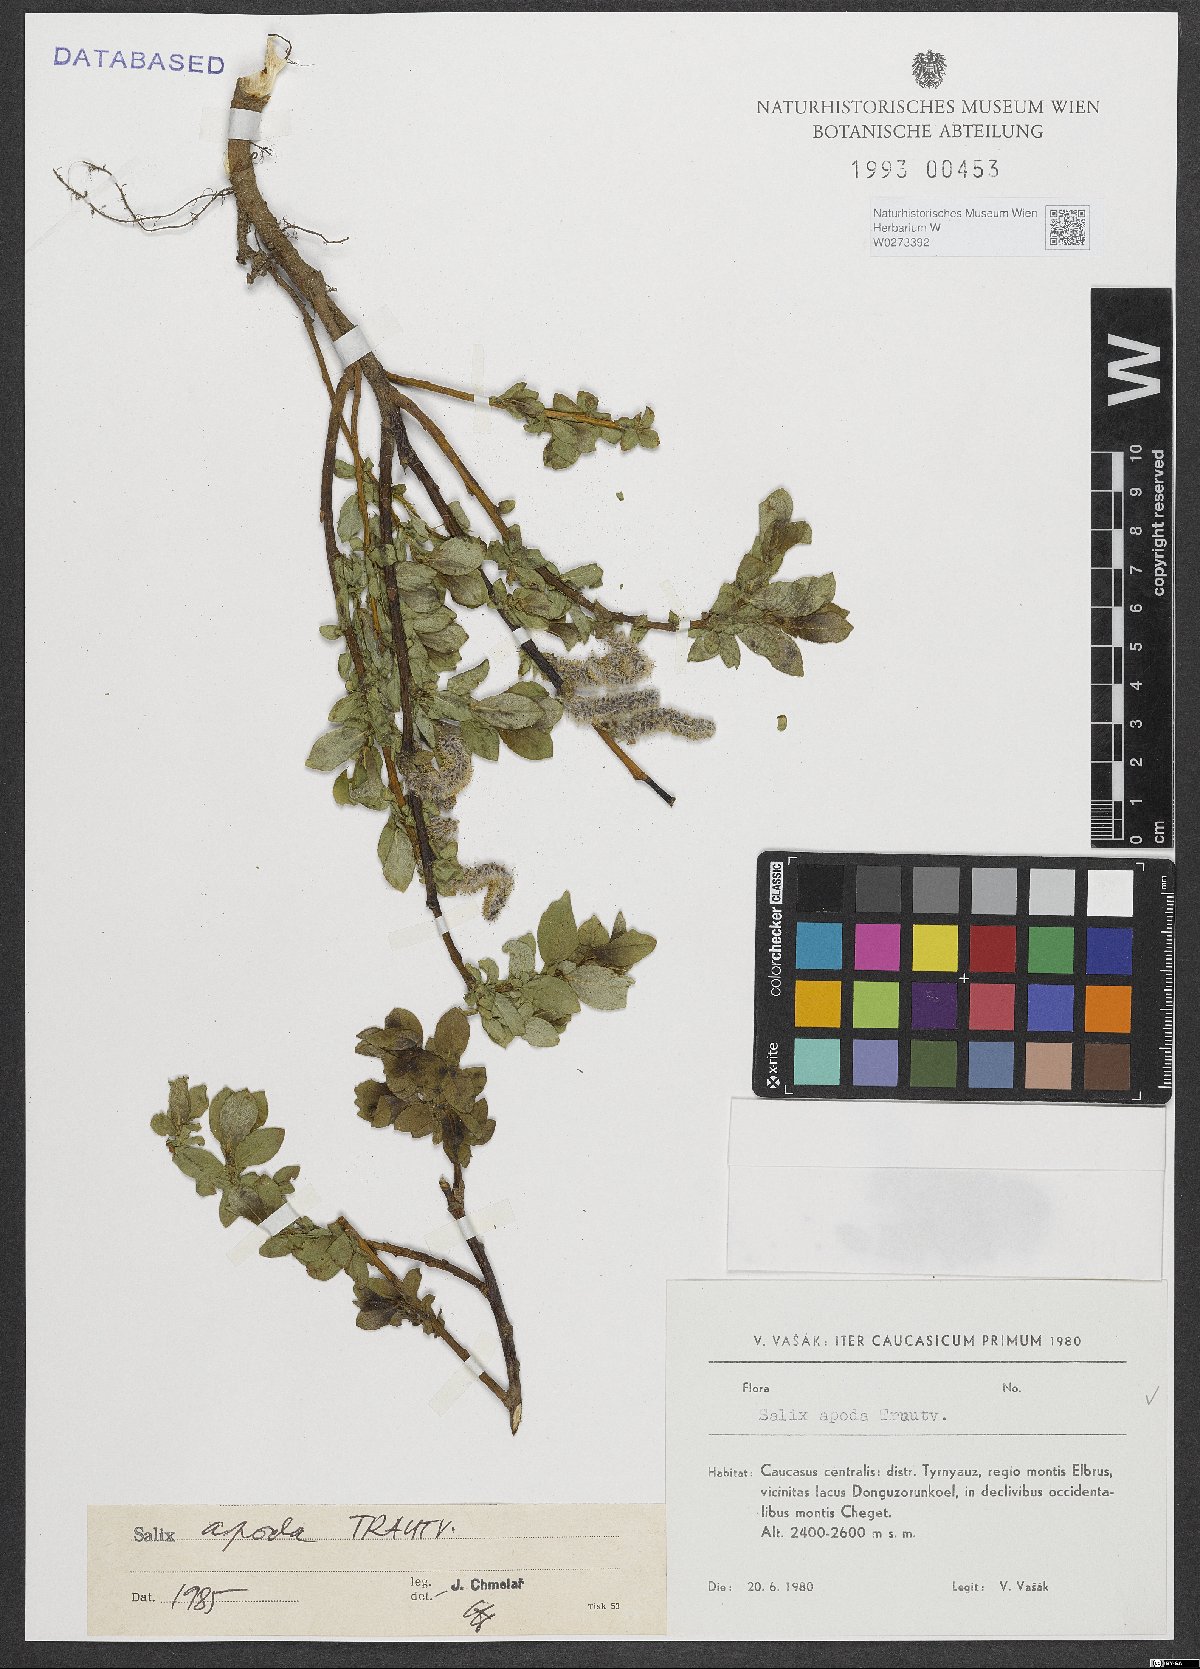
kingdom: Plantae
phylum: Tracheophyta
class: Magnoliopsida
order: Malpighiales
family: Salicaceae
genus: Salix
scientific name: Salix apoda
